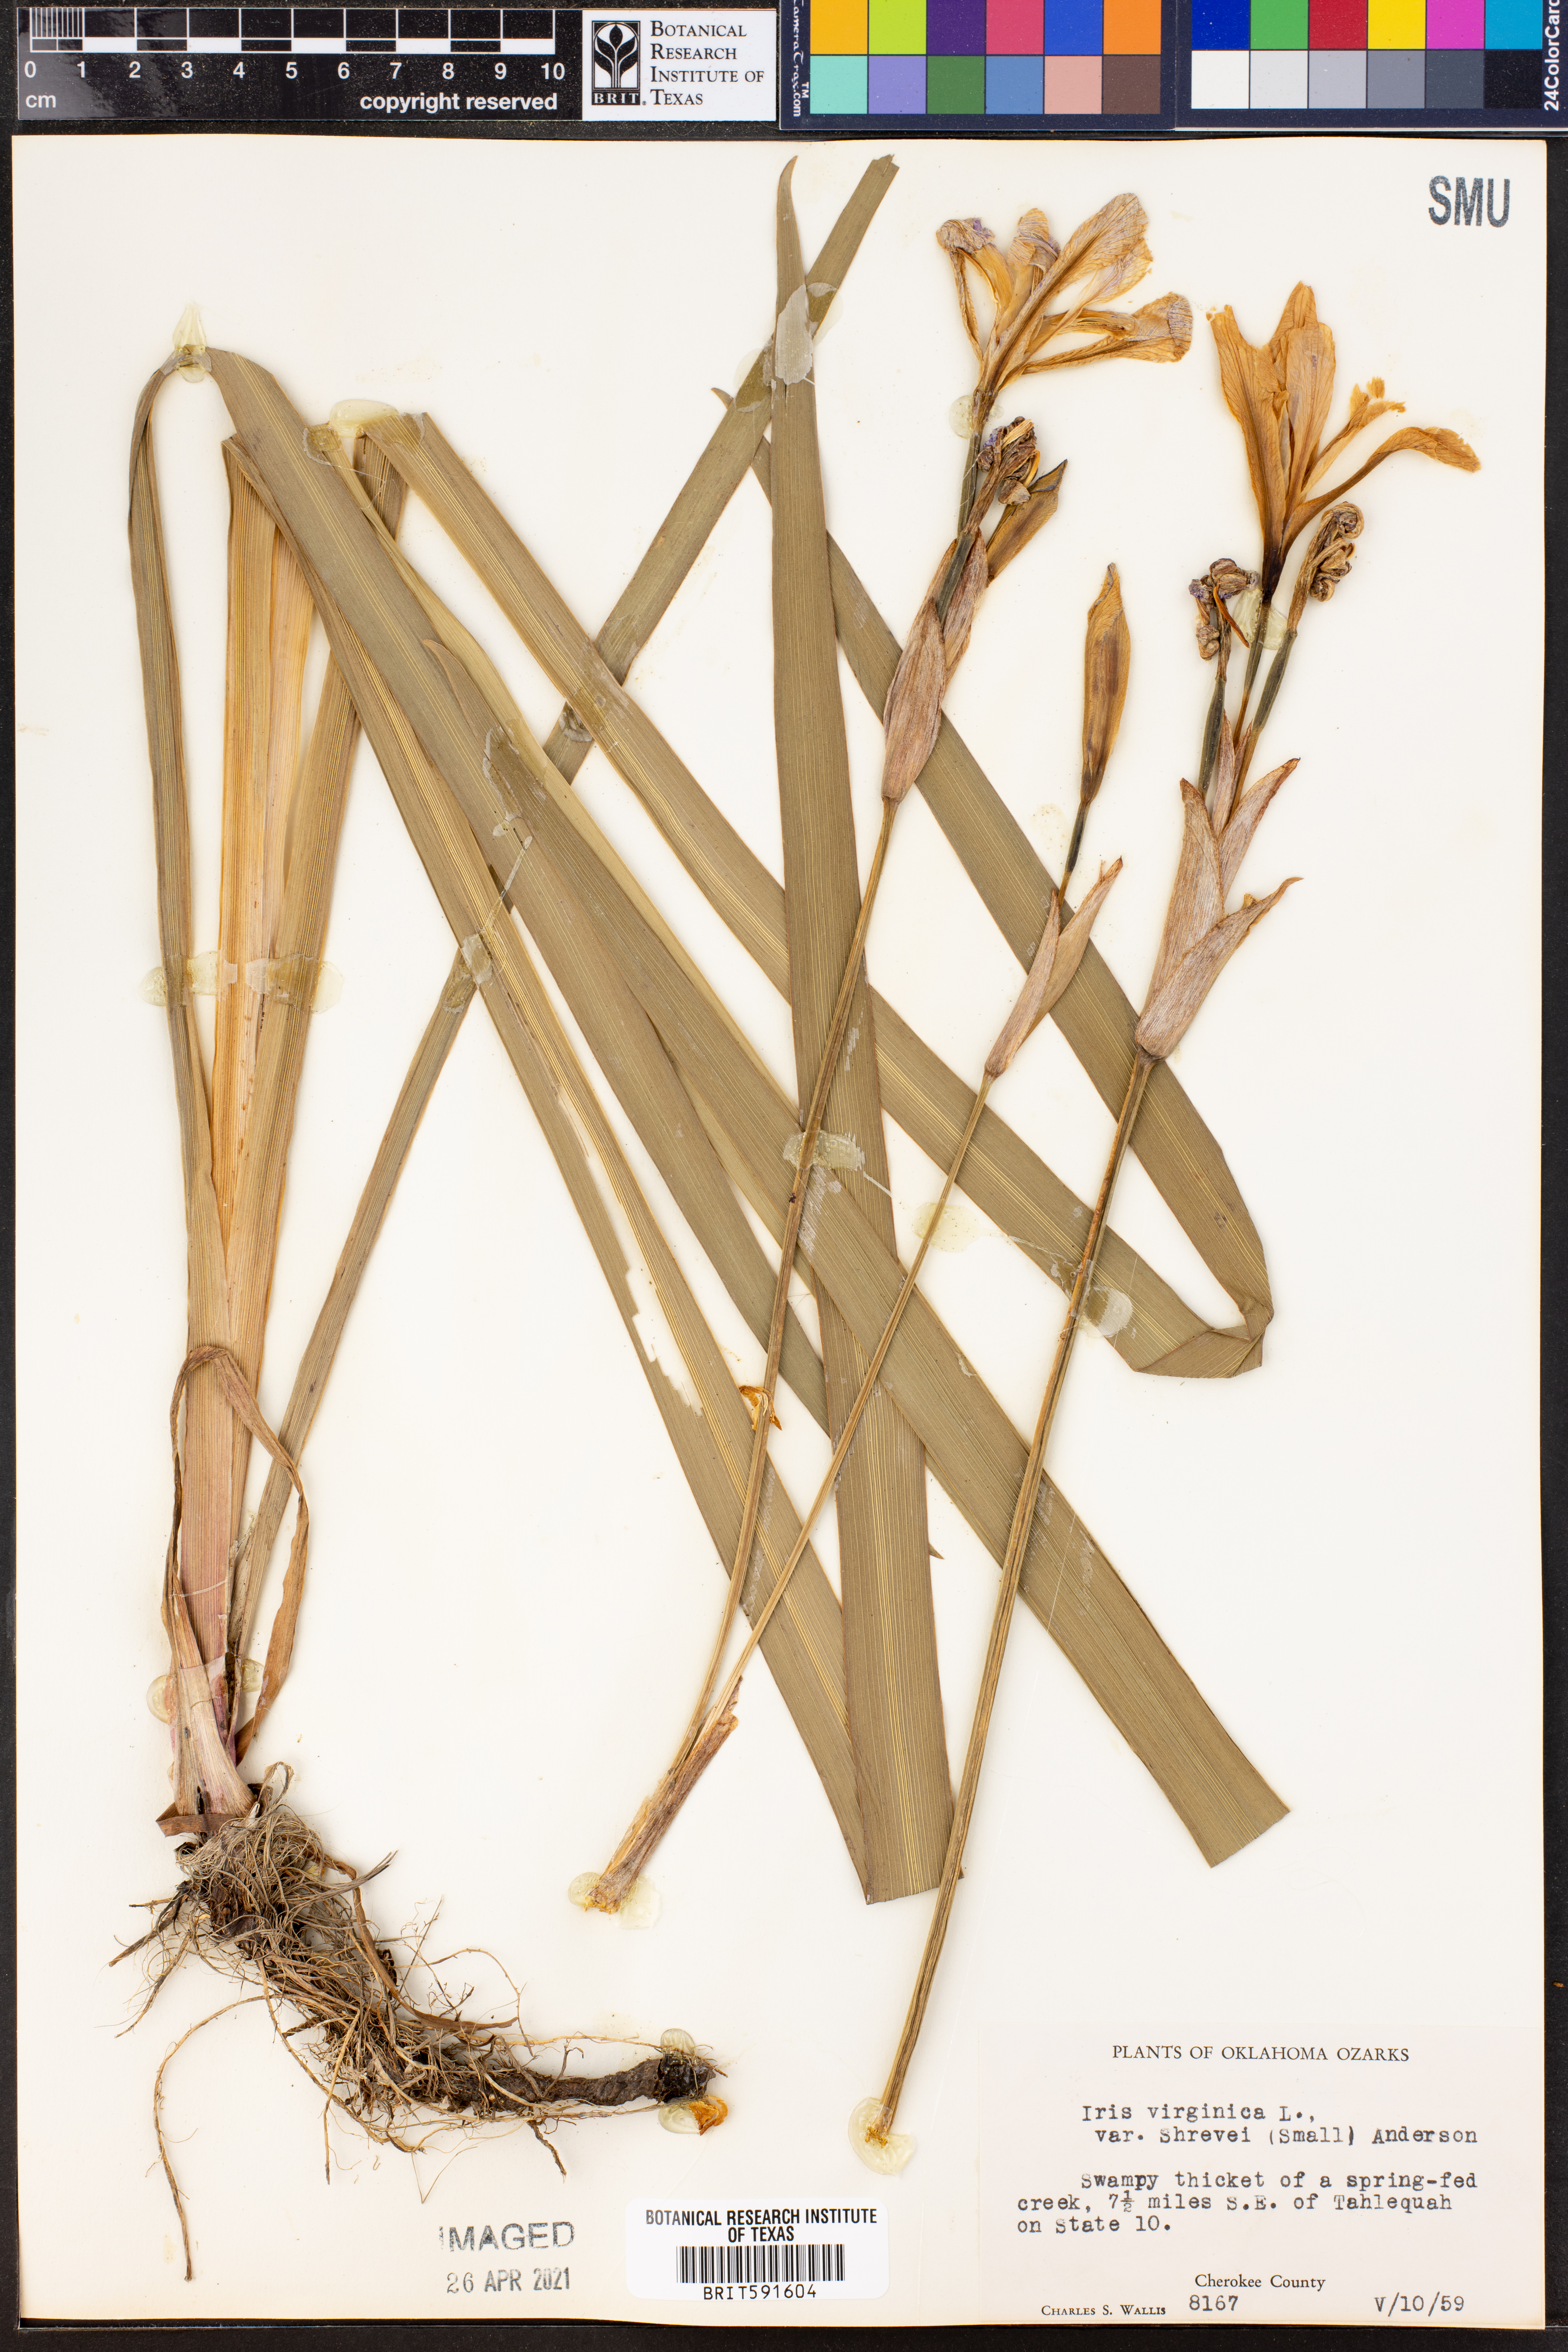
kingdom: Plantae
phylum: Tracheophyta
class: Liliopsida
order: Asparagales
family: Iridaceae
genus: Iris
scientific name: Iris virginica
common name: Southern blue flag
